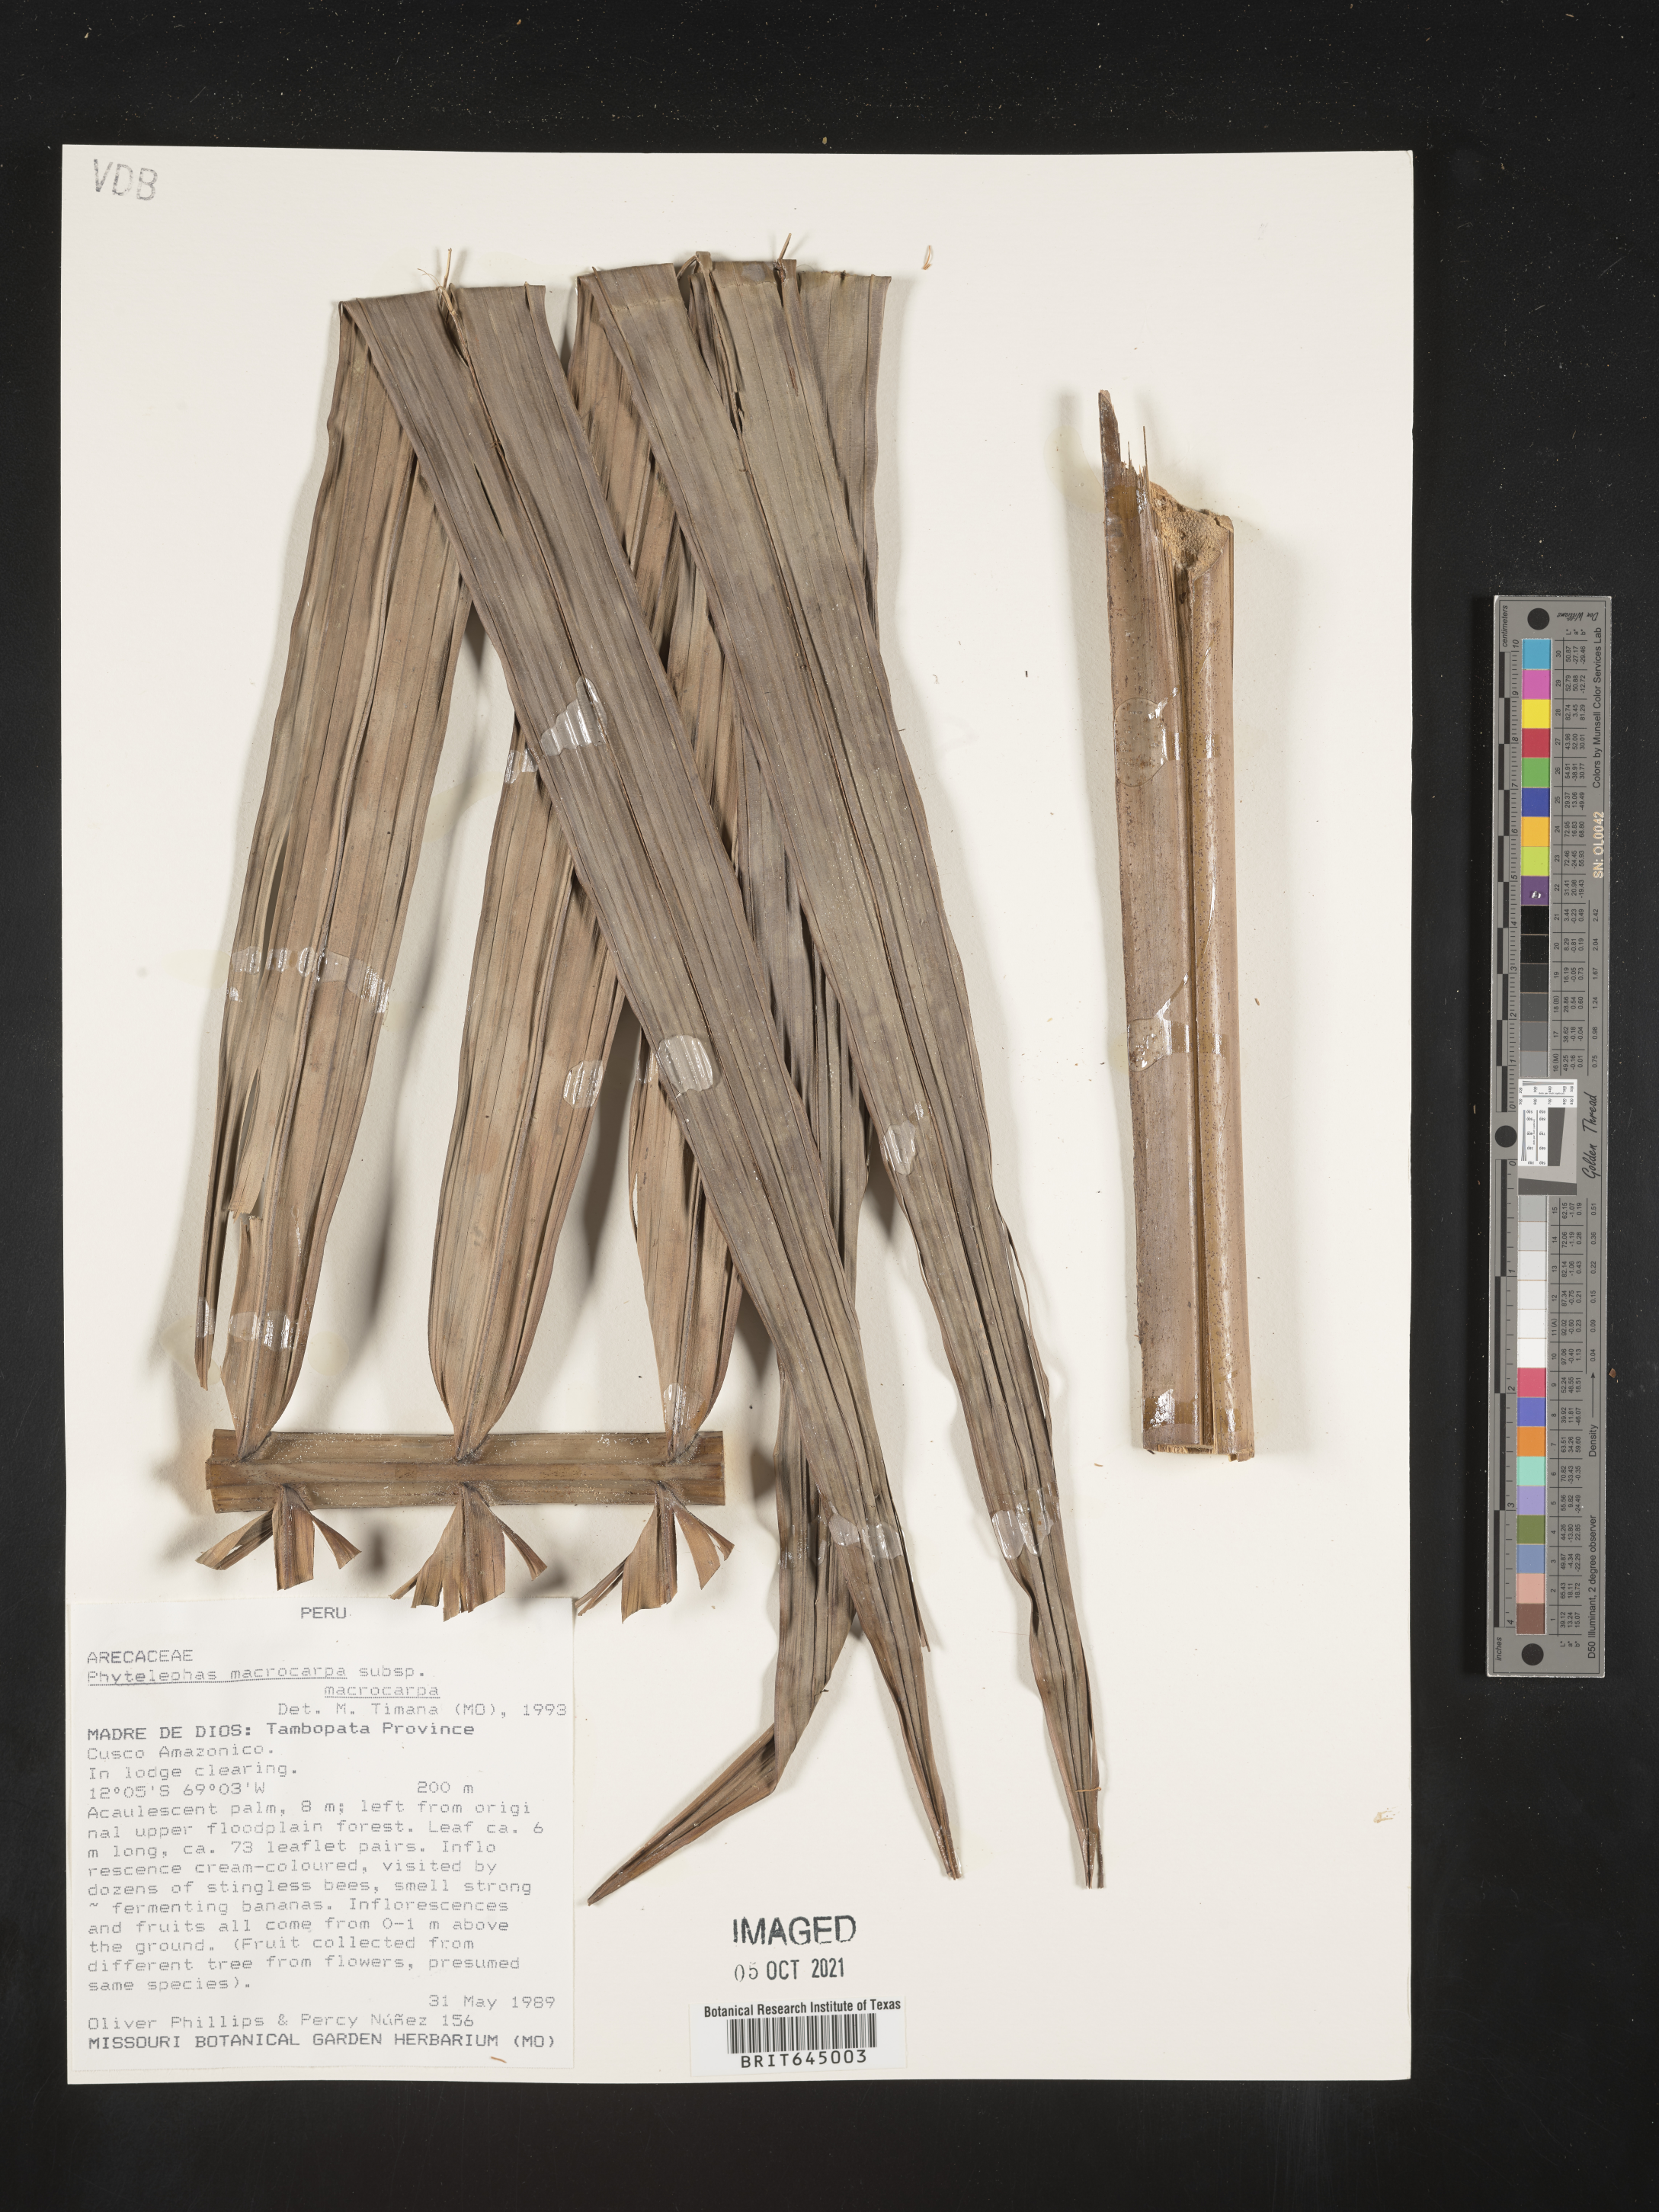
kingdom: Plantae
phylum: Tracheophyta
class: Liliopsida
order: Arecales
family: Arecaceae
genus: Phytelephas
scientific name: Phytelephas macrocarpa
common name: Ivory palm
